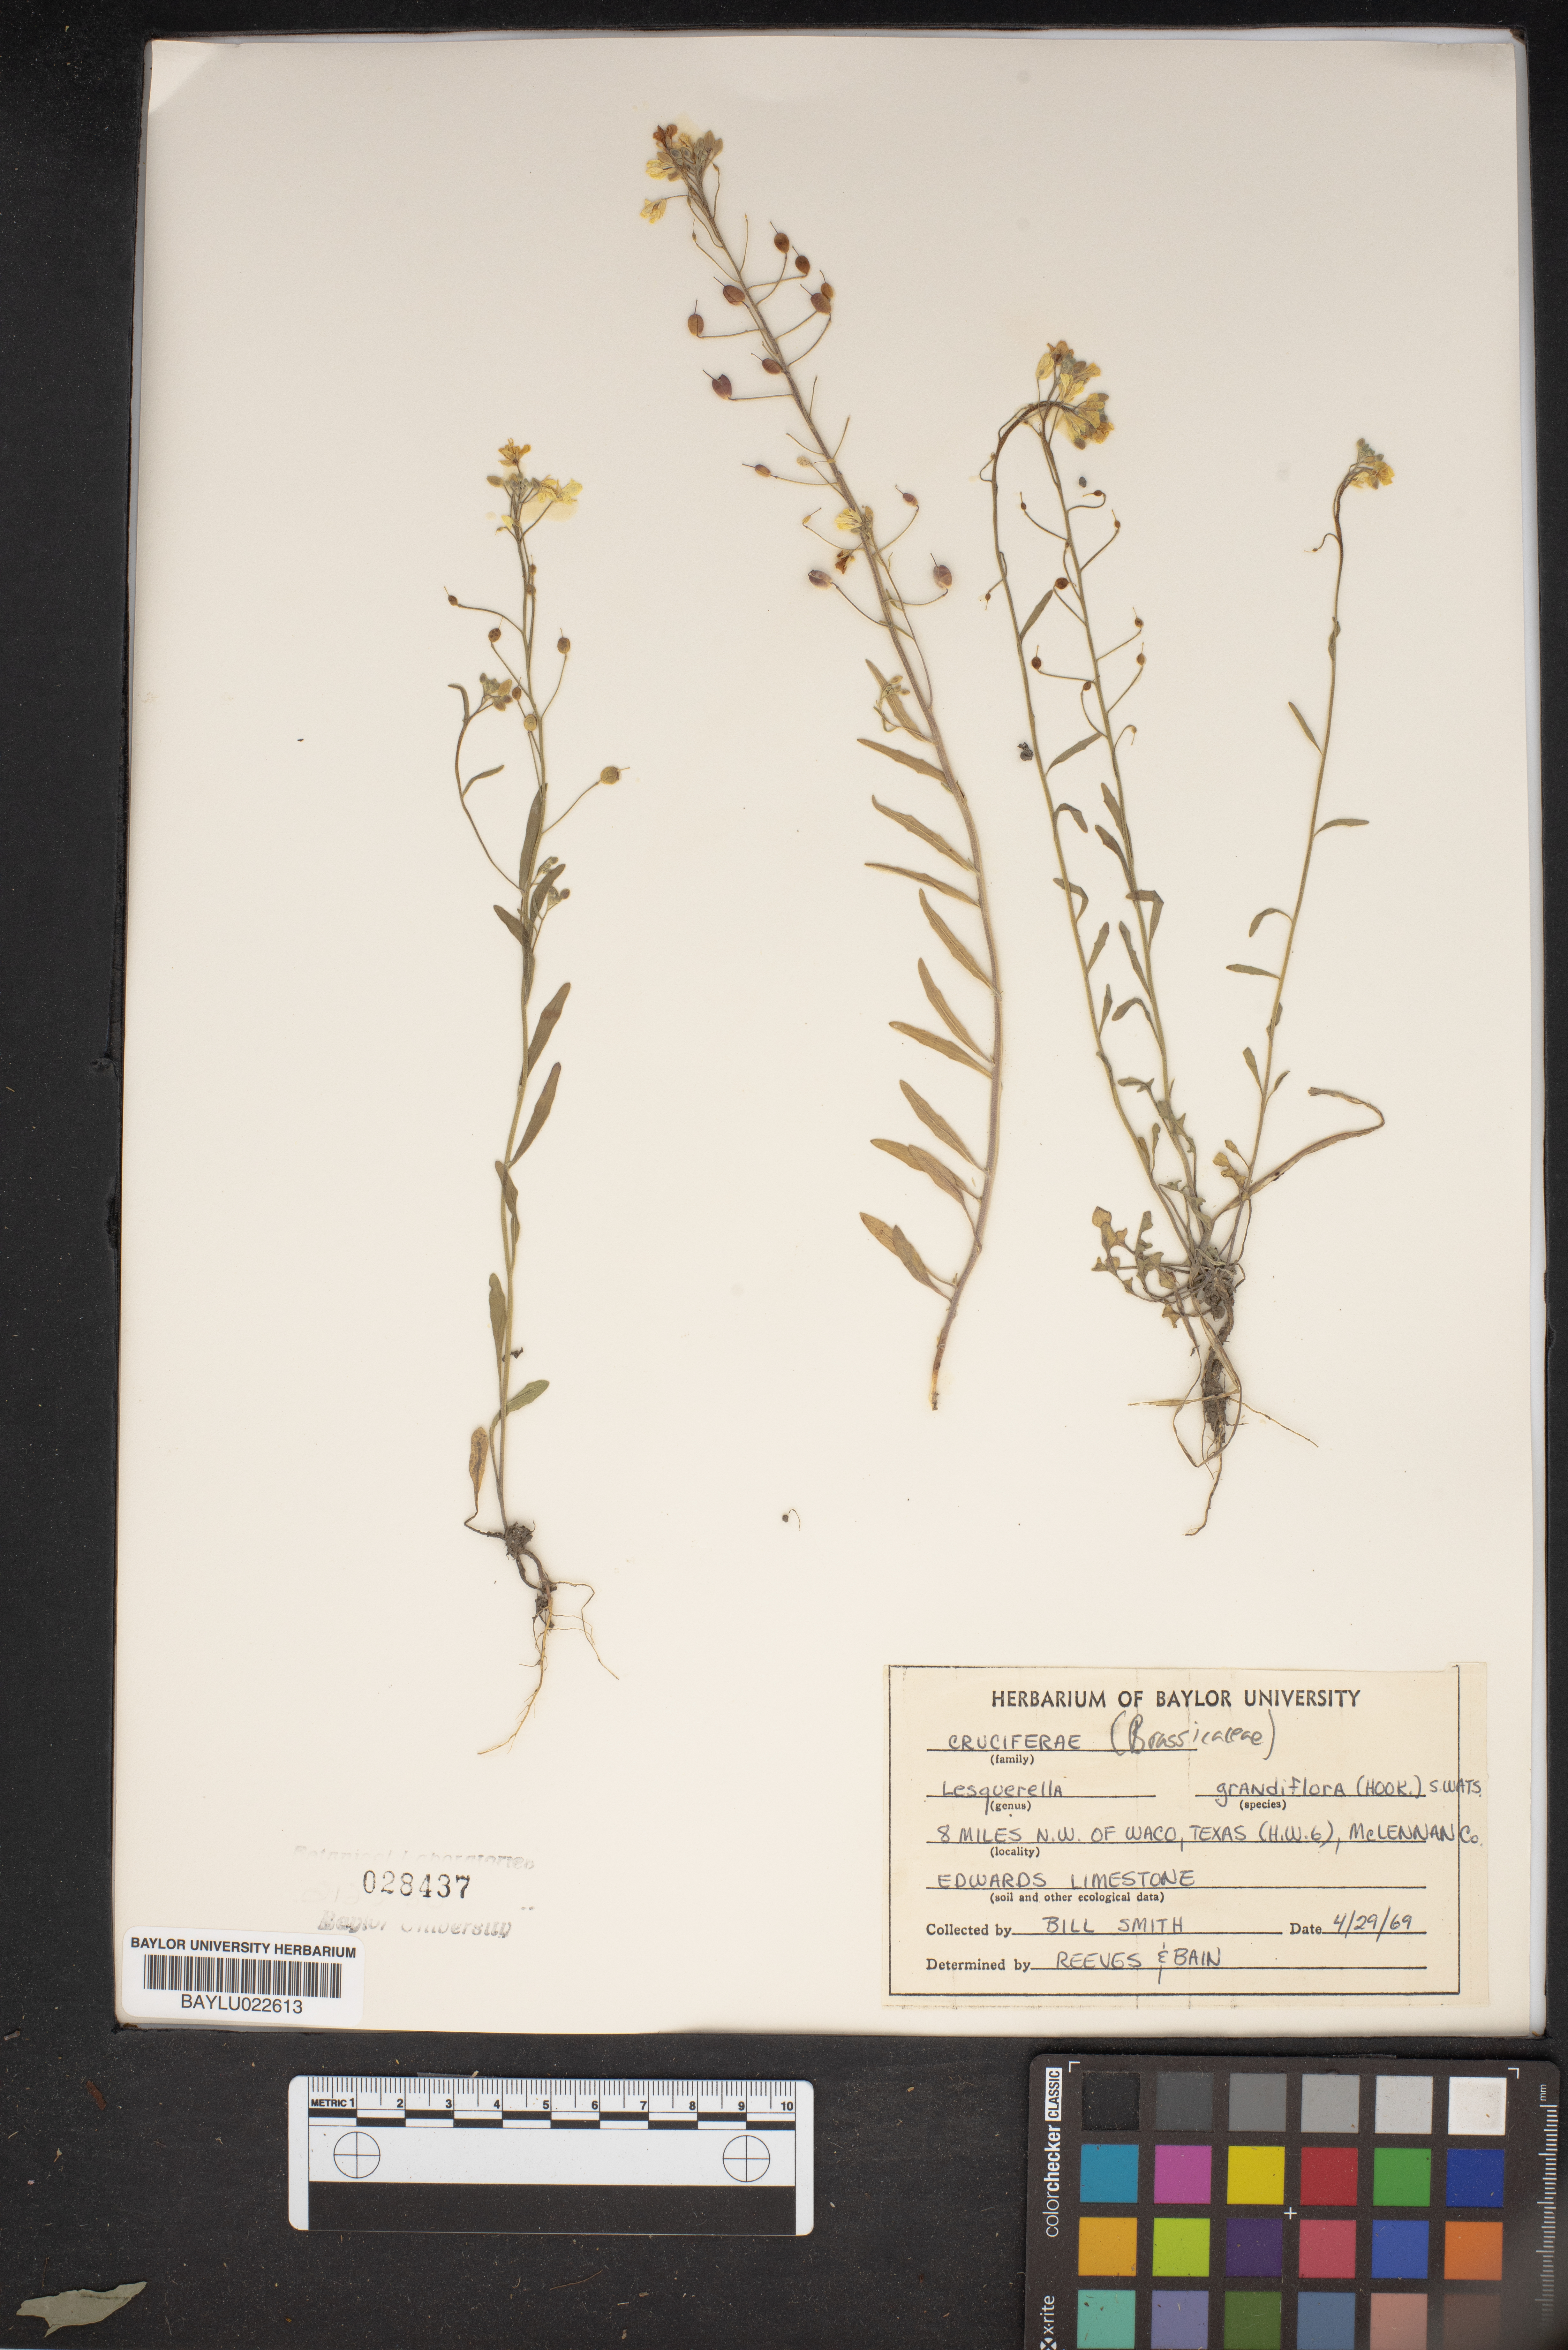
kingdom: Plantae
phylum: Tracheophyta
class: Magnoliopsida
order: Brassicales
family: Brassicaceae
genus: Paysonia
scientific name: Paysonia grandiflora
